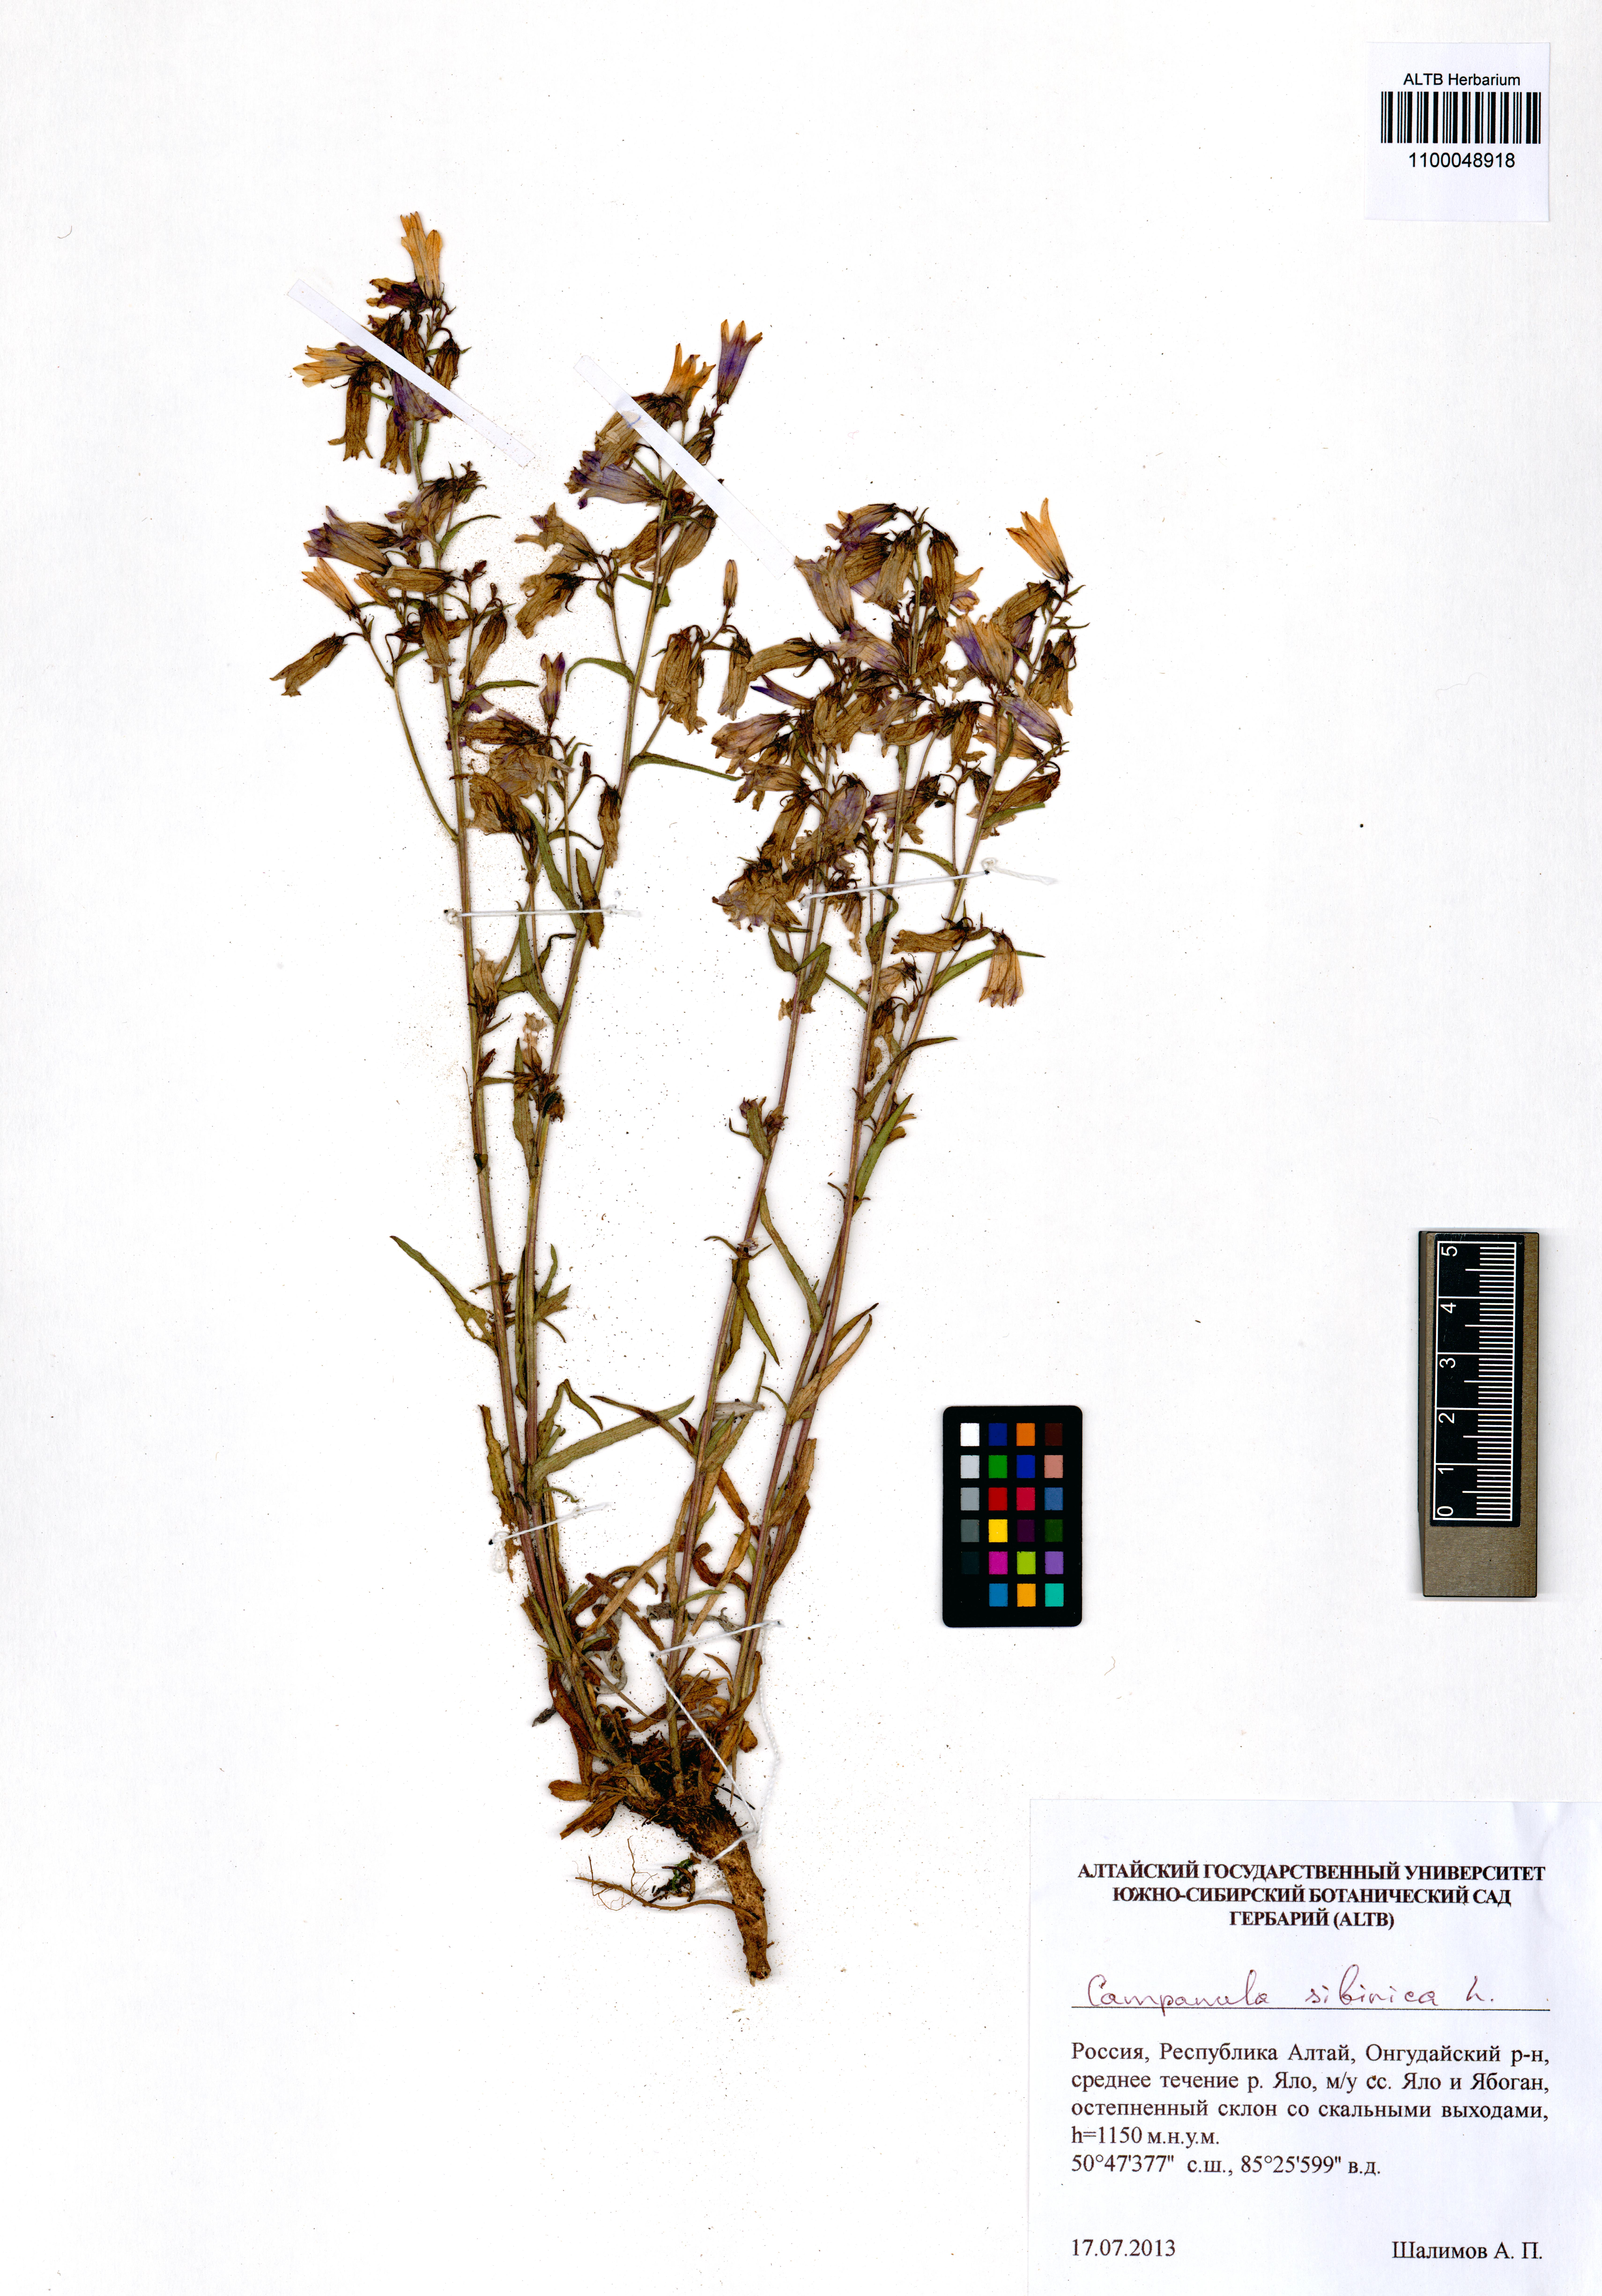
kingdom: Plantae
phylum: Tracheophyta
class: Magnoliopsida
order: Asterales
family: Campanulaceae
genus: Campanula
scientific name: Campanula sibirica
